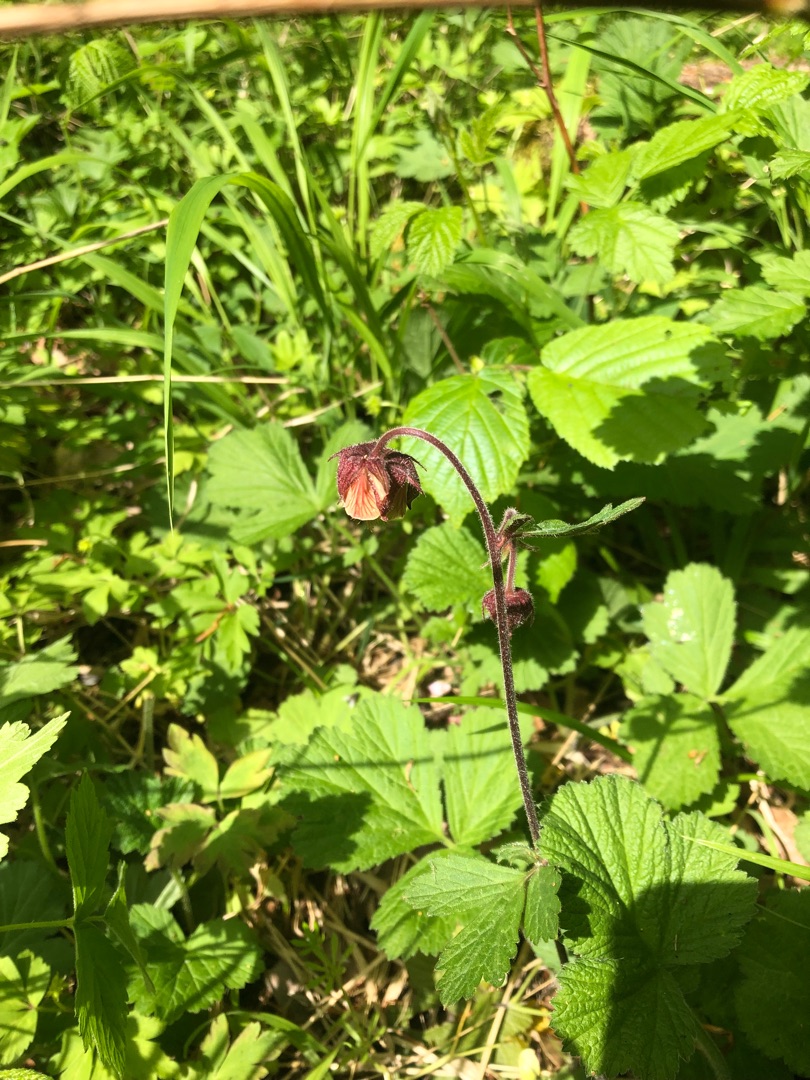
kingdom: Plantae
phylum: Tracheophyta
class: Magnoliopsida
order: Rosales
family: Rosaceae
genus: Geum
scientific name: Geum rivale
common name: Eng-nellikerod
